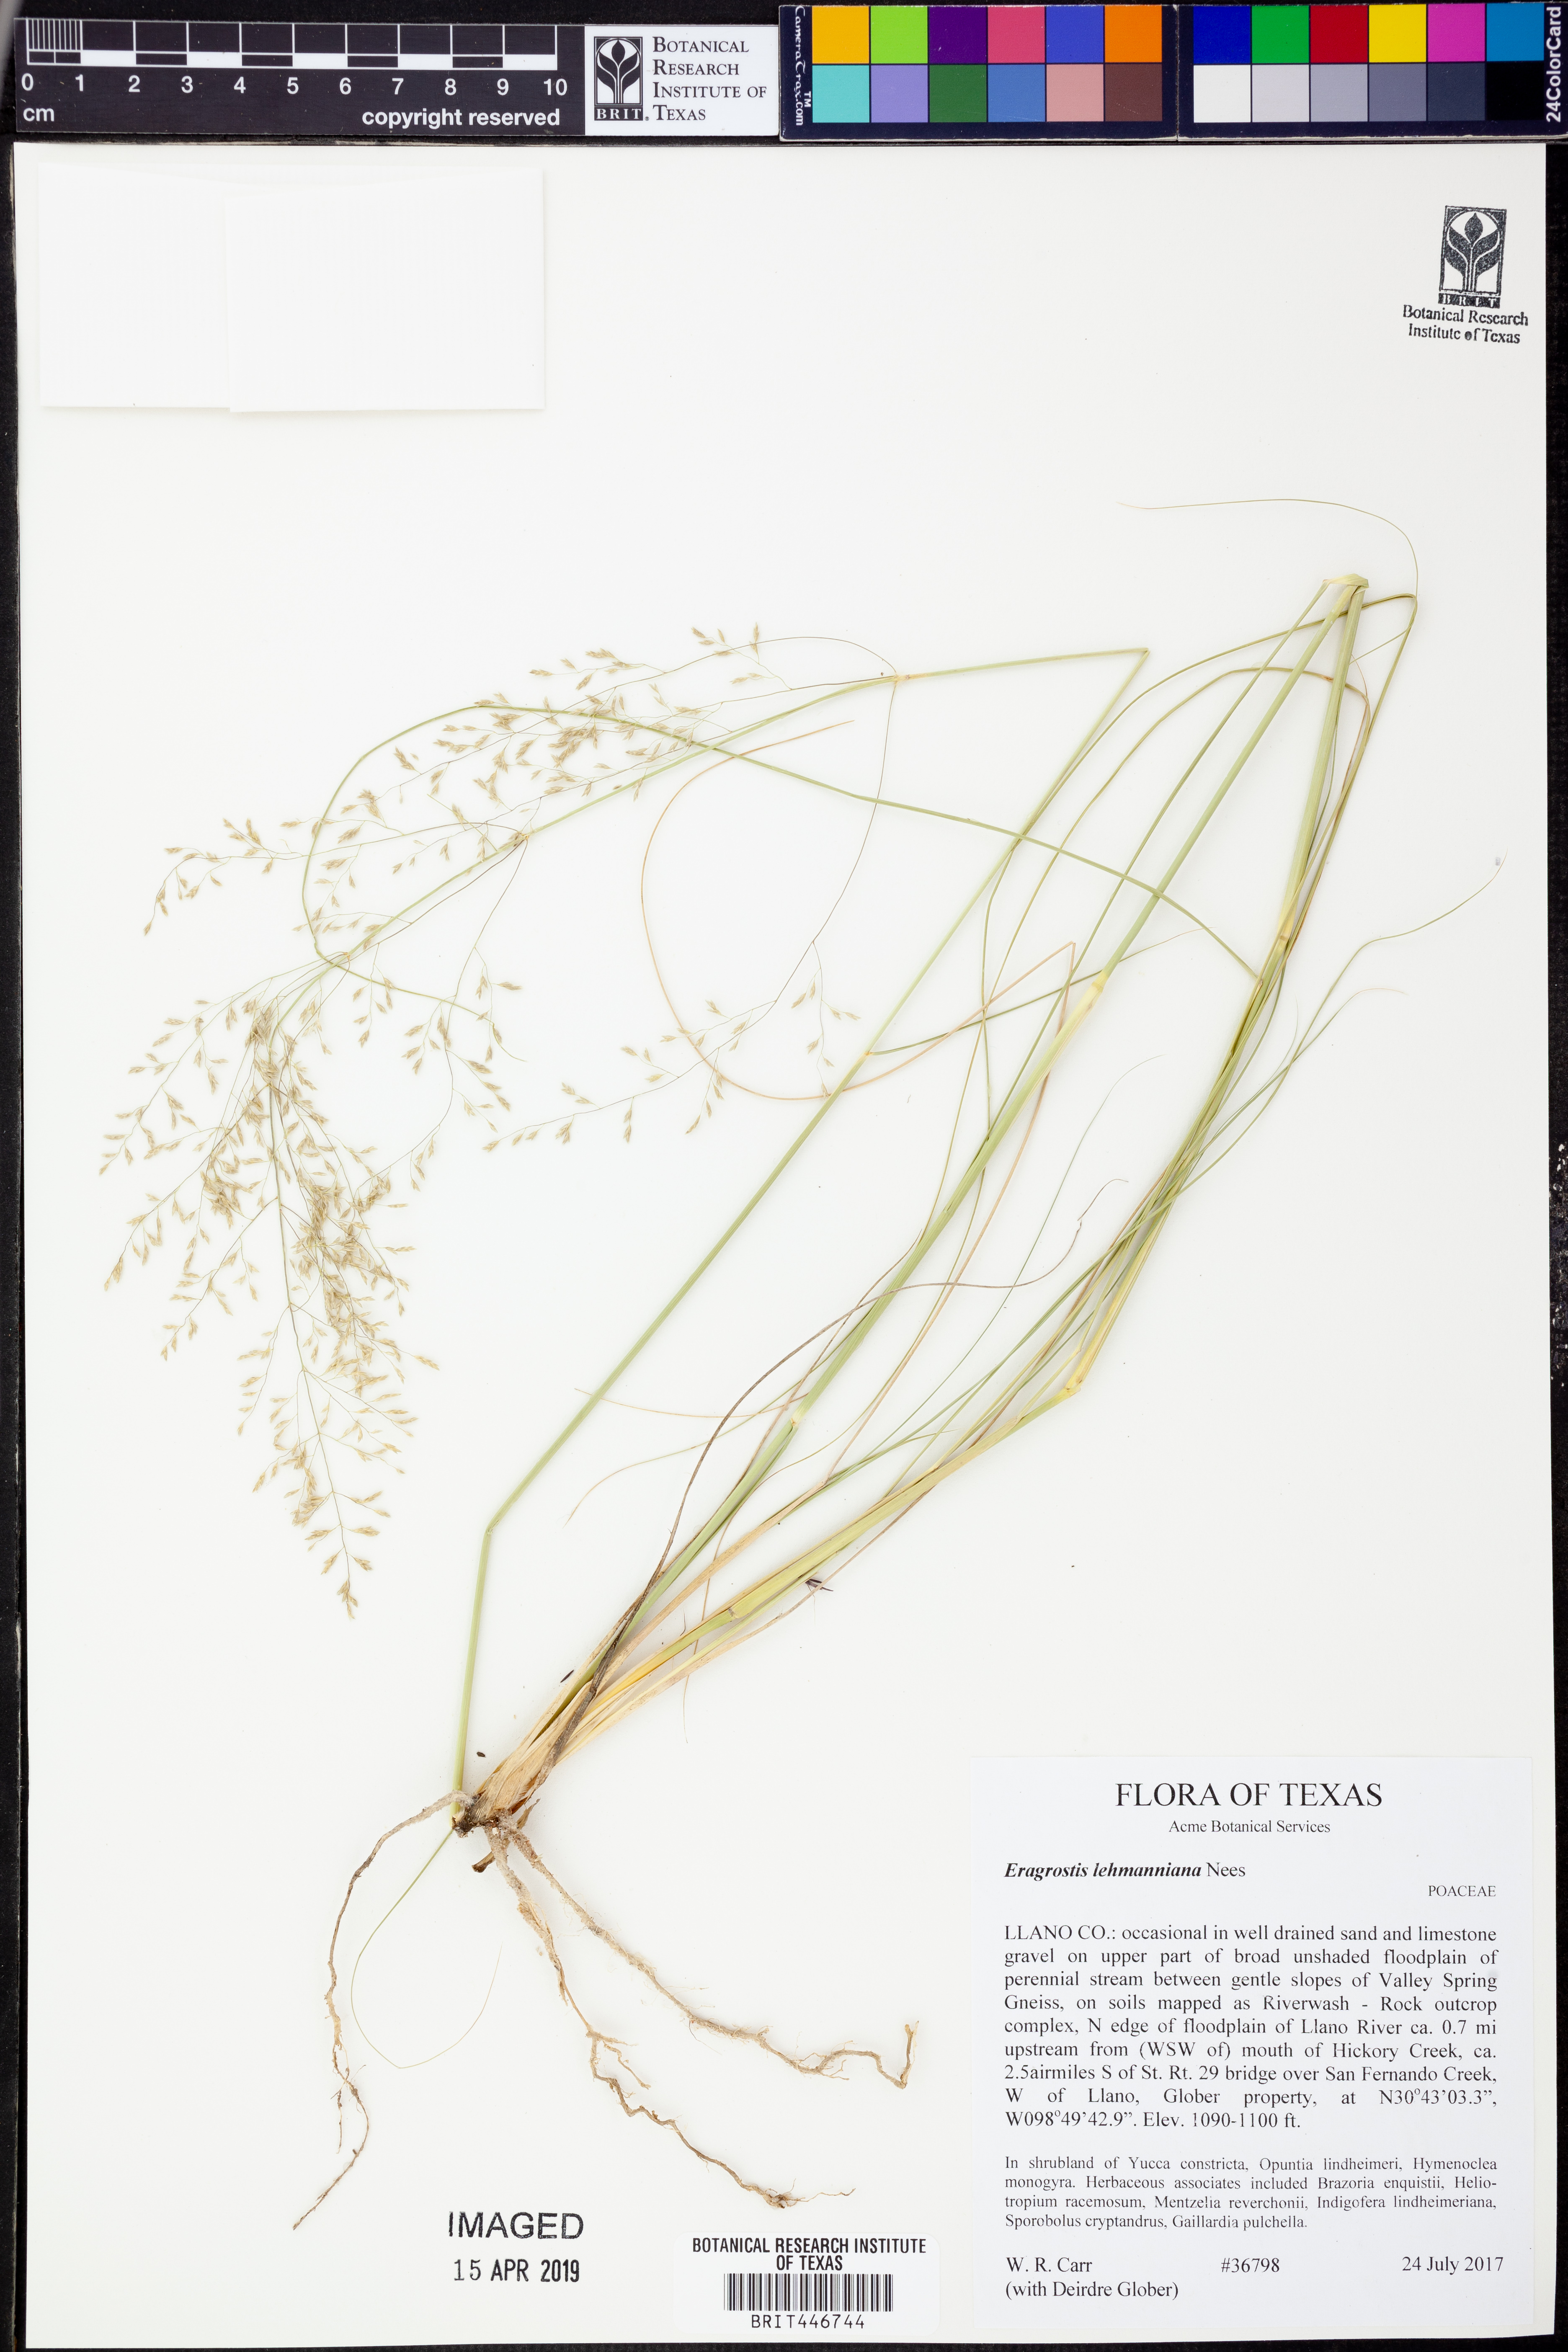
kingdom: Plantae
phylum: Tracheophyta
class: Liliopsida
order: Poales
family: Poaceae
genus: Eragrostis
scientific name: Eragrostis lehmanniana
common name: Lehmann lovegrass
